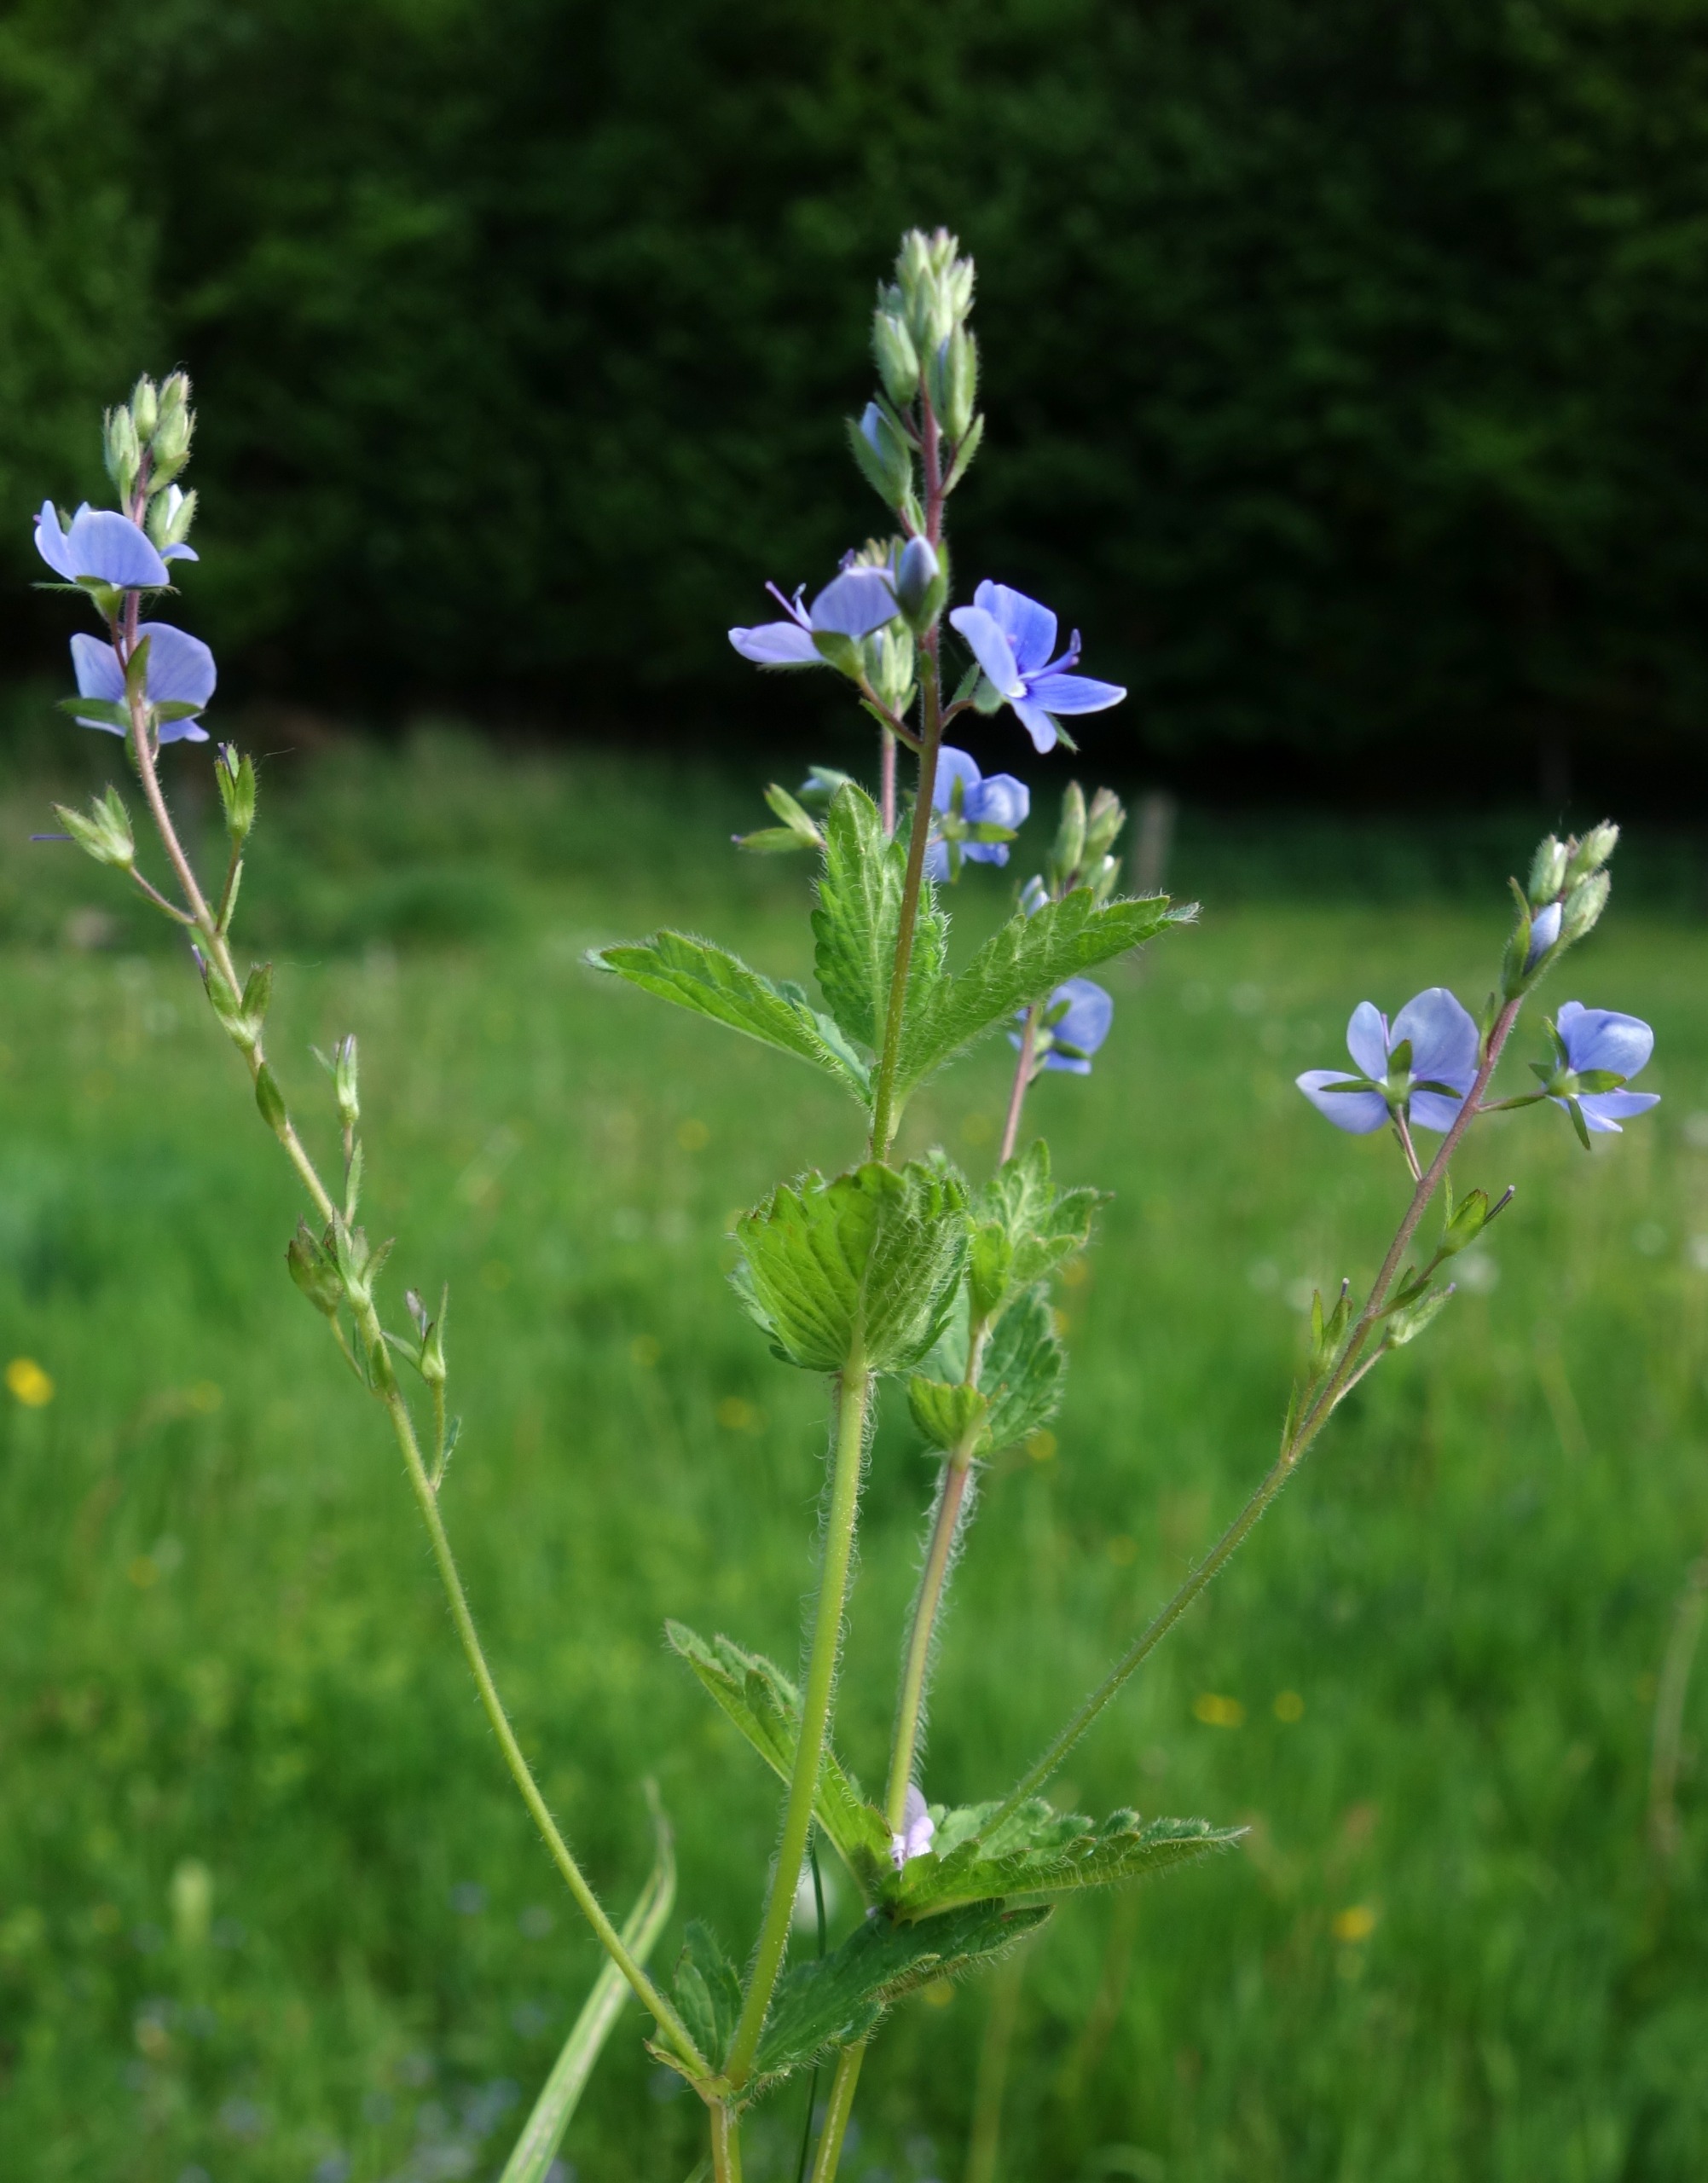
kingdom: Plantae
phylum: Tracheophyta
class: Magnoliopsida
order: Lamiales
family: Plantaginaceae
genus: Veronica
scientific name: Veronica chamaedrys
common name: Tveskægget ærenpris
